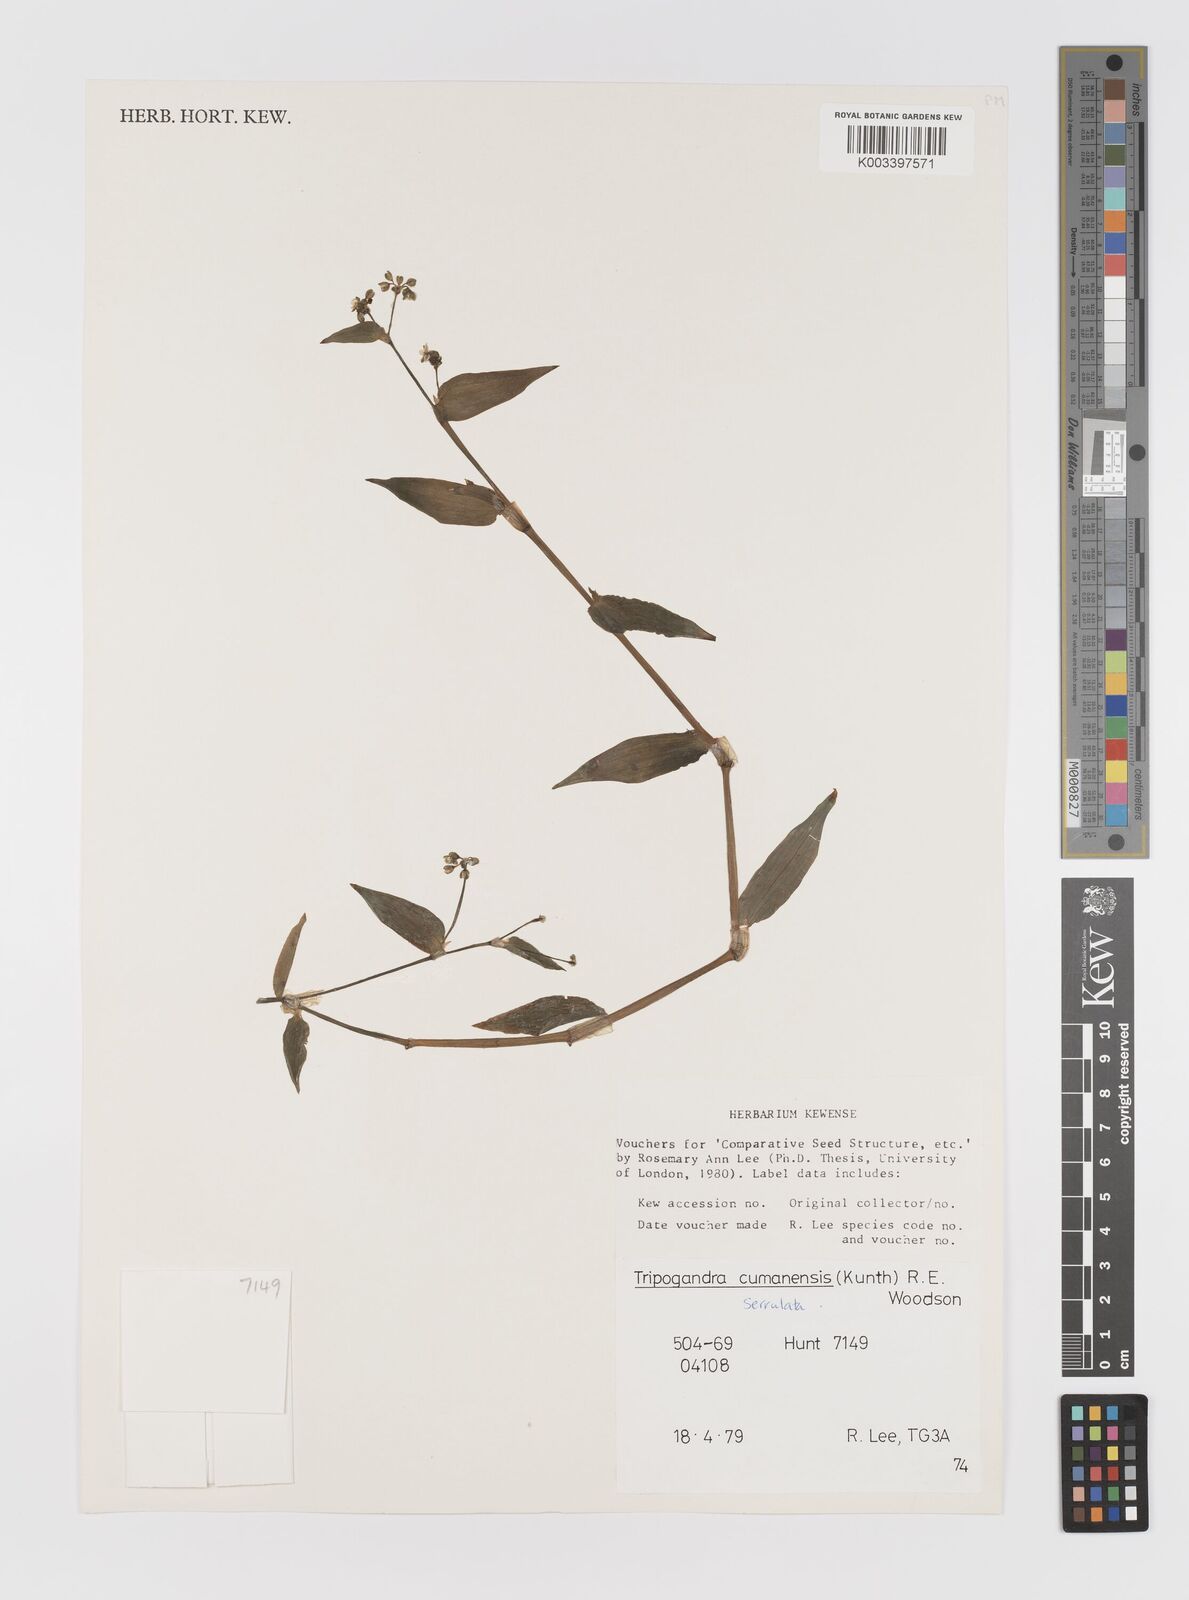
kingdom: Plantae
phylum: Tracheophyta
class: Liliopsida
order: Commelinales
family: Commelinaceae
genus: Callisia
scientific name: Callisia serrulata
